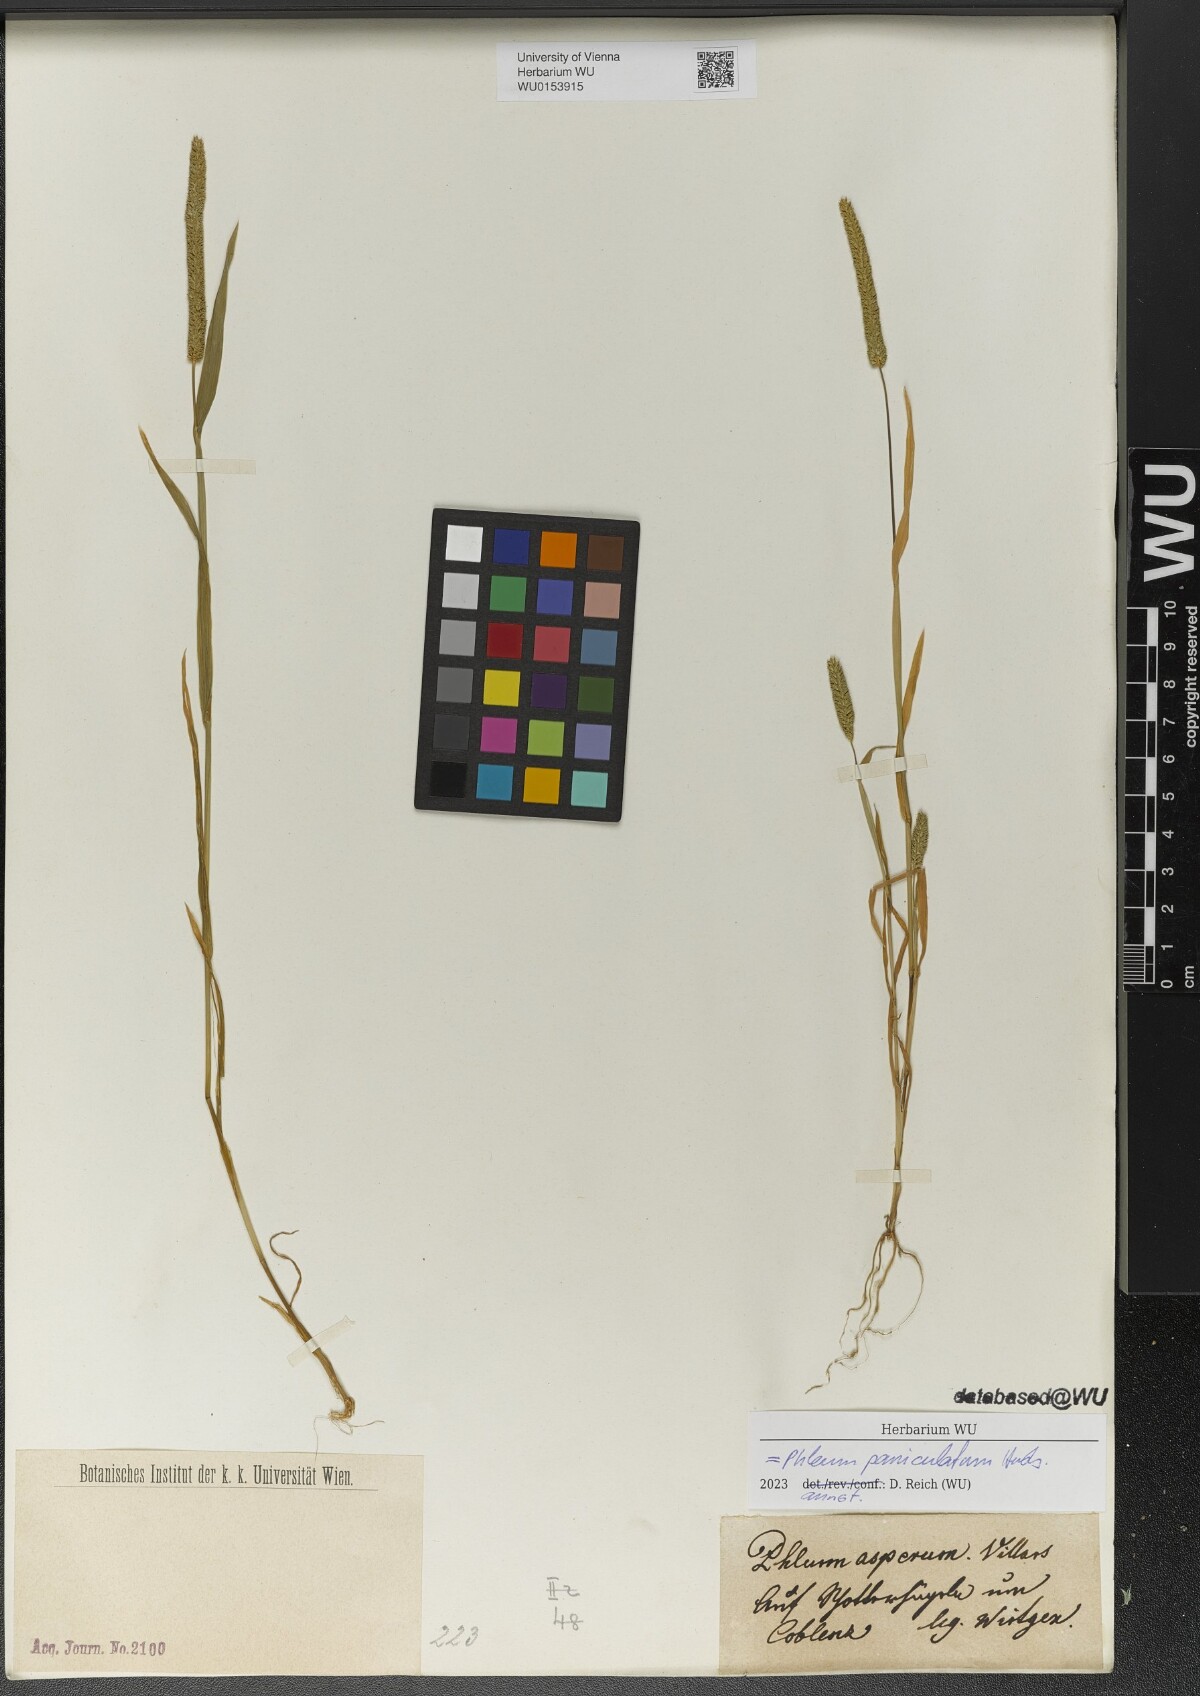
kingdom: Plantae
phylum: Tracheophyta
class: Liliopsida
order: Poales
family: Poaceae
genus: Phleum
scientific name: Phleum paniculatum
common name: British timothy
